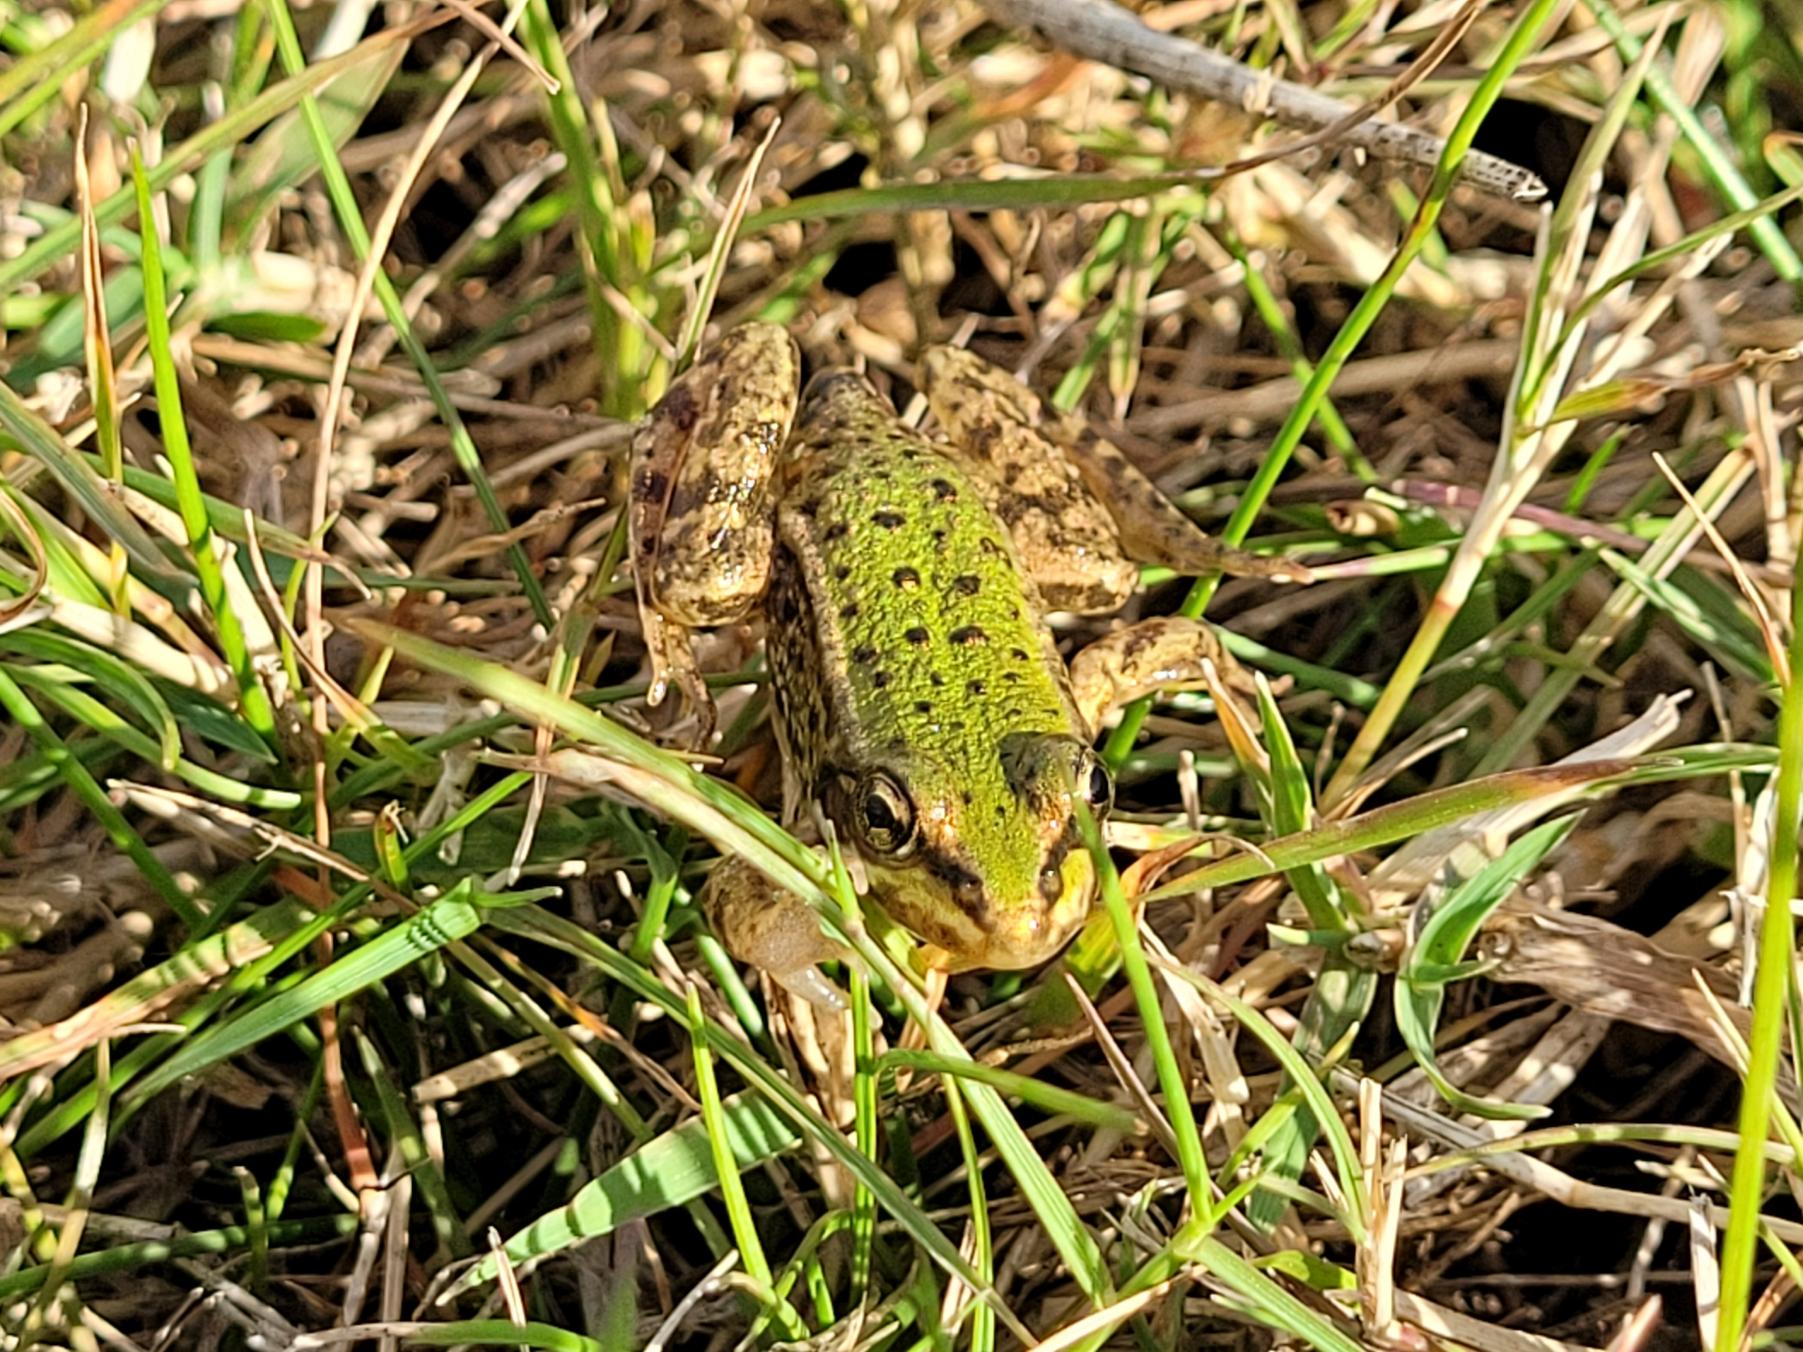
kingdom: Animalia
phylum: Chordata
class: Amphibia
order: Anura
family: Ranidae
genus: Pelophylax
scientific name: Pelophylax lessonae
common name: Grøn frø
